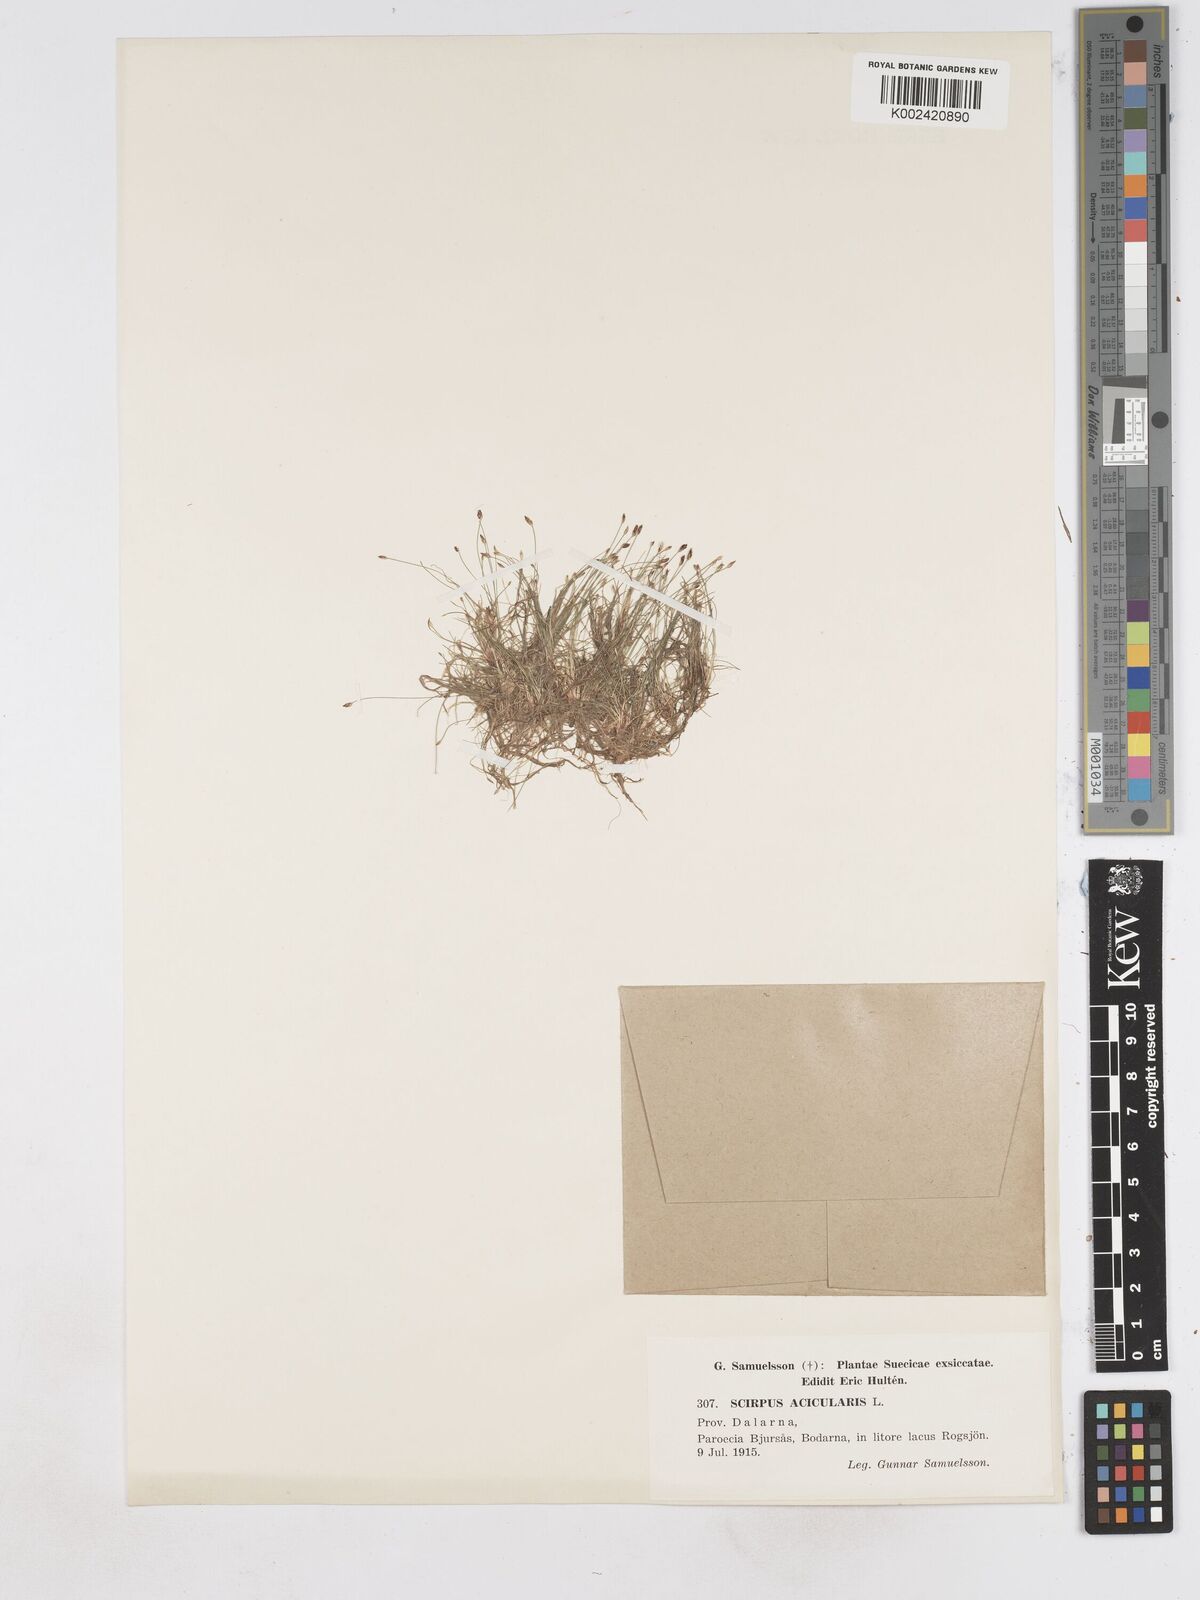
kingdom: Plantae
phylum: Tracheophyta
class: Liliopsida
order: Poales
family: Cyperaceae
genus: Eleocharis
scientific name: Eleocharis acicularis
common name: Needle spike-rush
